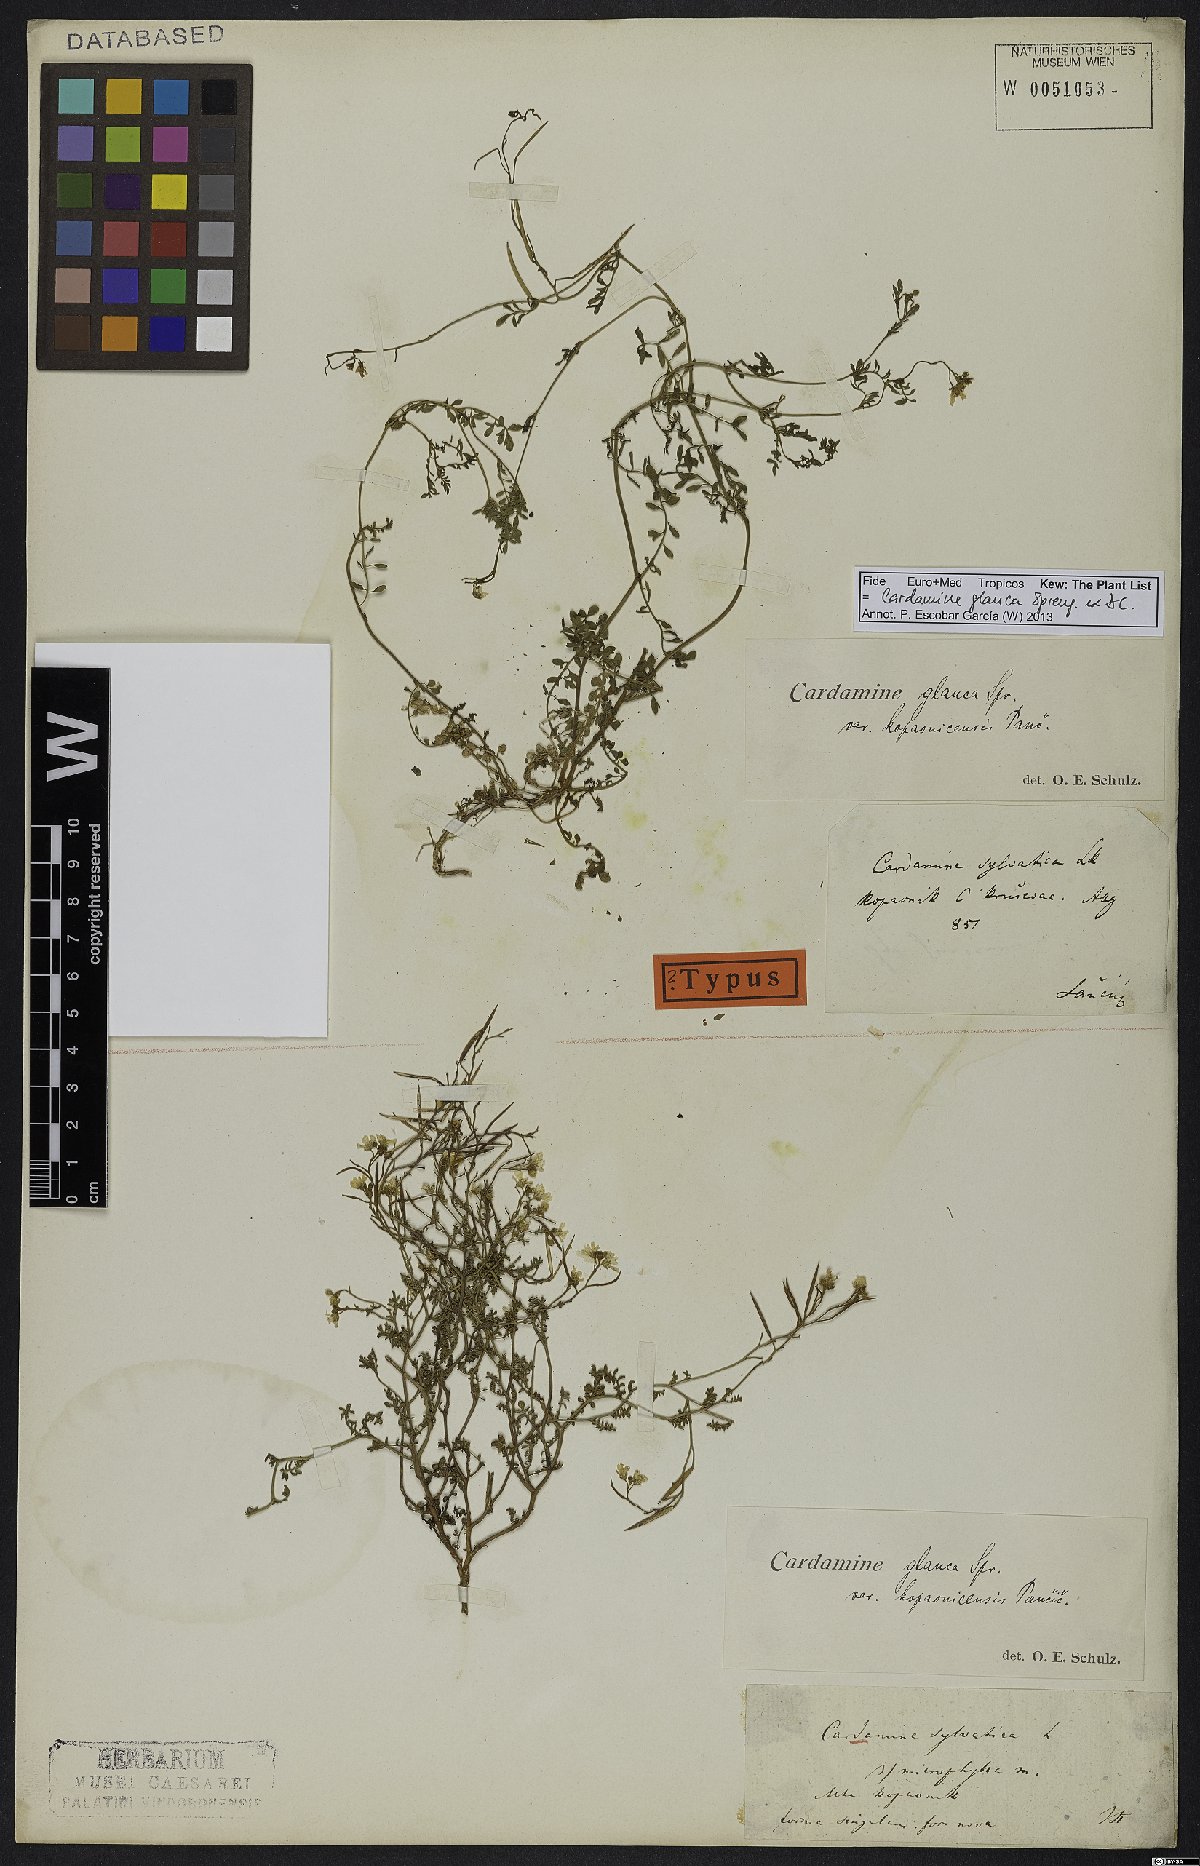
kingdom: Plantae
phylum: Tracheophyta
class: Magnoliopsida
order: Brassicales
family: Brassicaceae
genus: Cardamine
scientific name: Cardamine glauca
